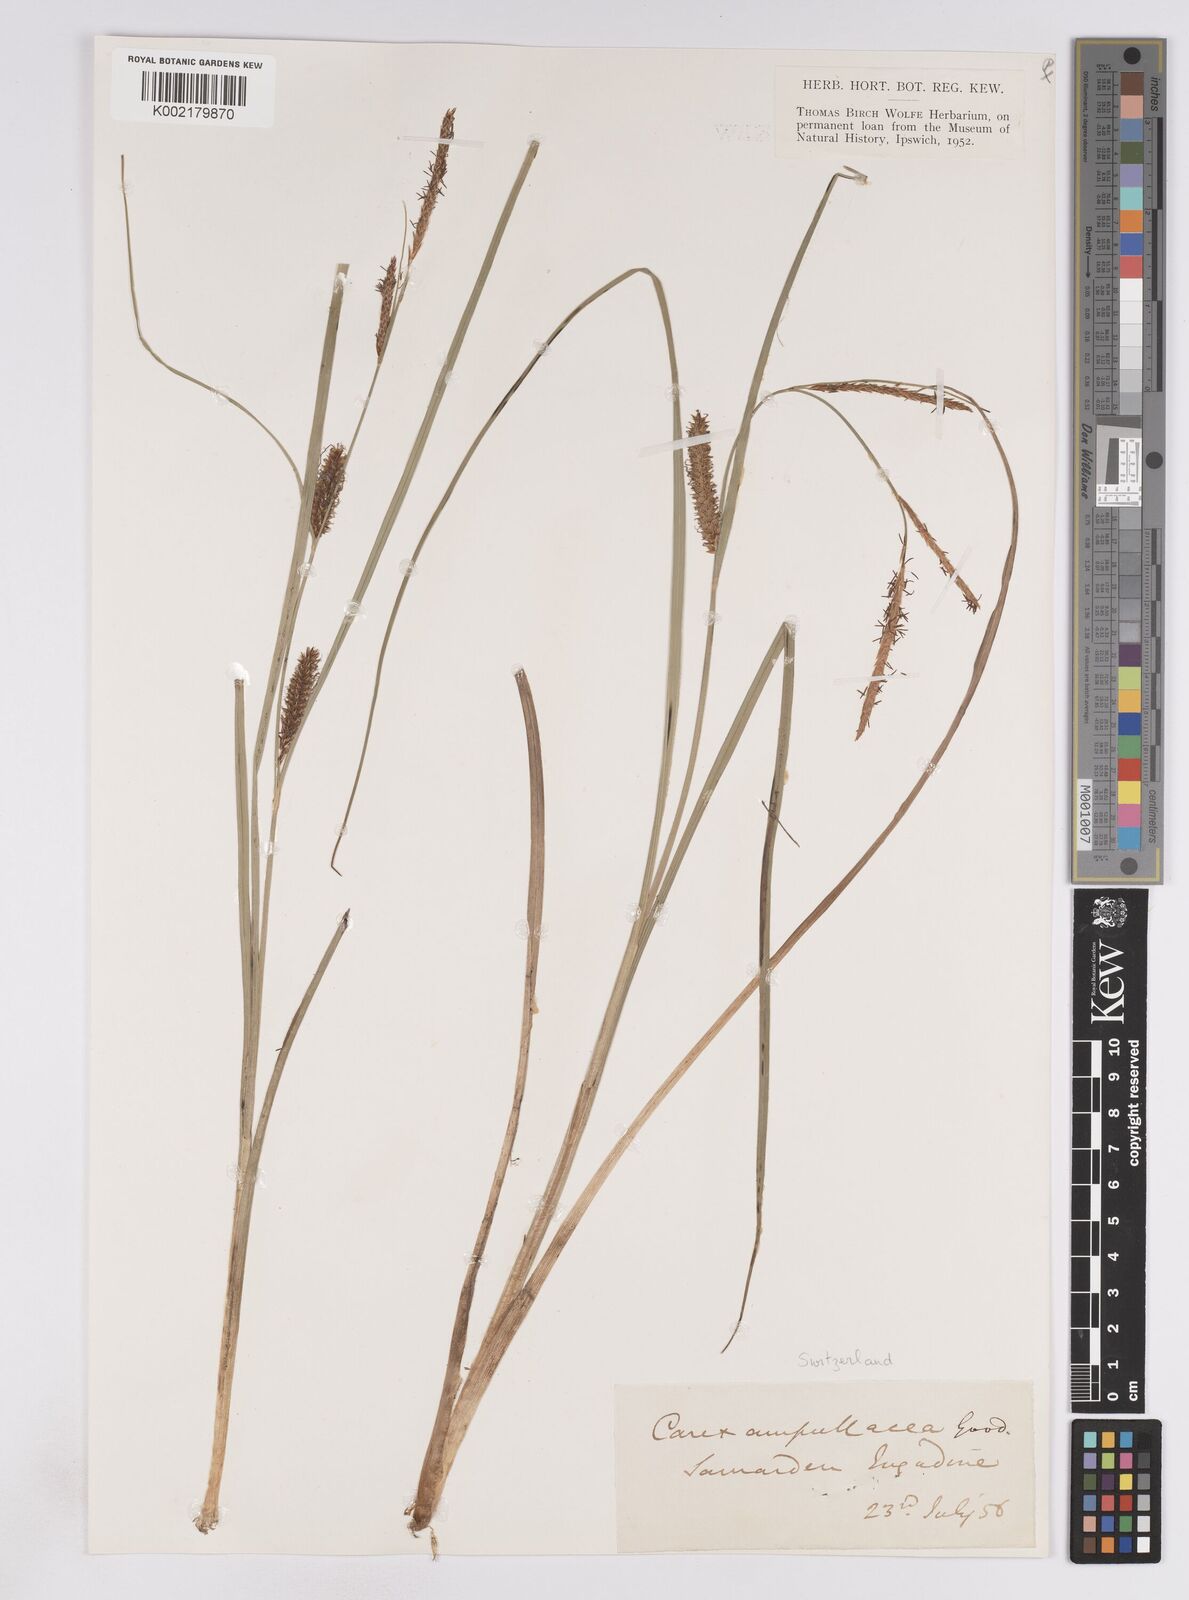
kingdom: Plantae
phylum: Tracheophyta
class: Liliopsida
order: Poales
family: Cyperaceae
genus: Carex
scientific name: Carex rostrata
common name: Bottle sedge
